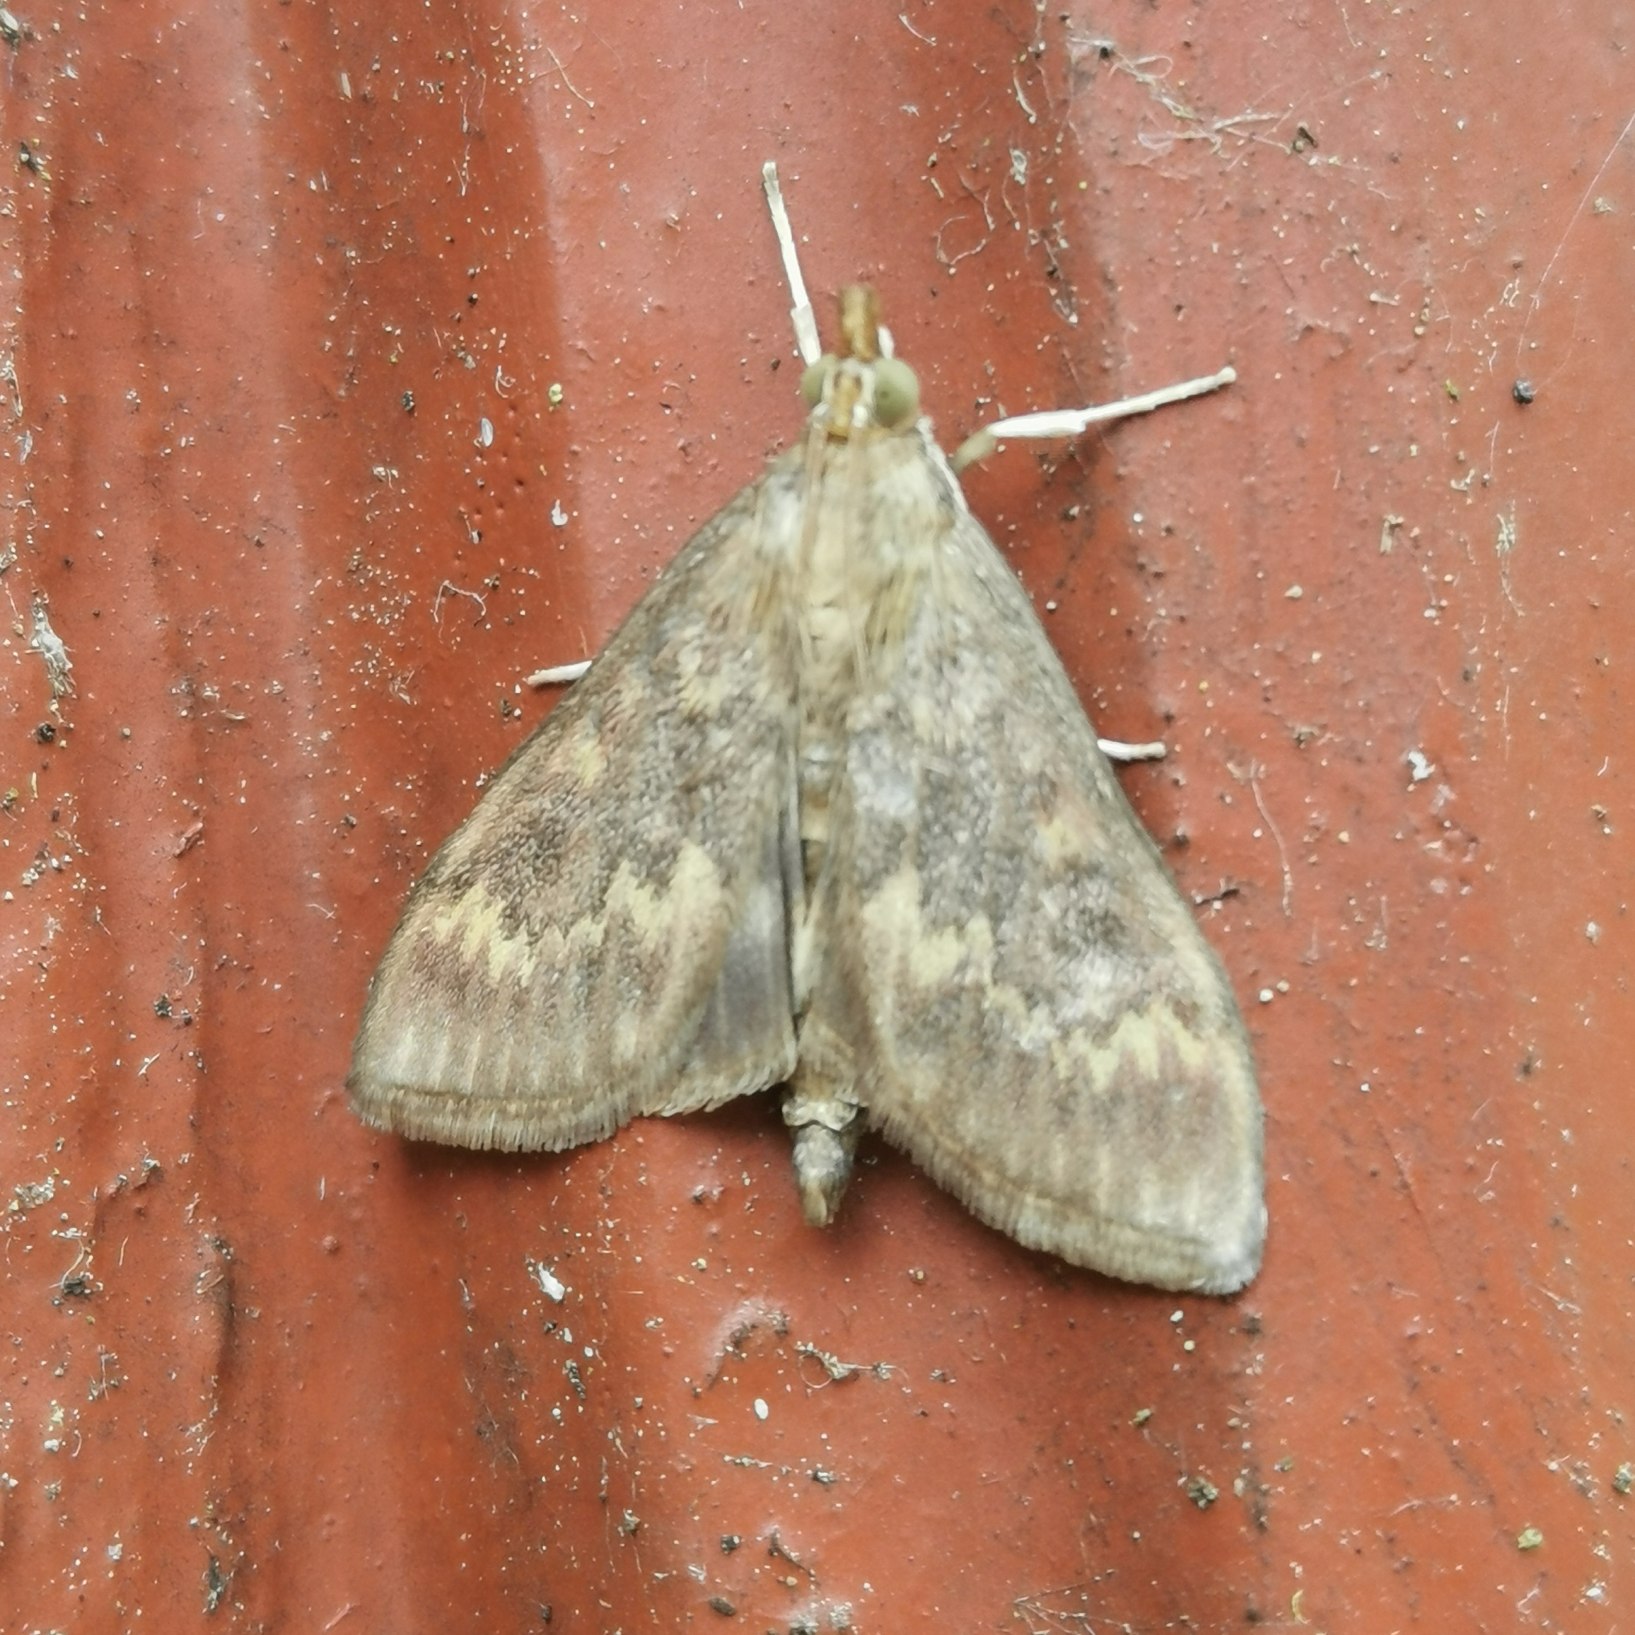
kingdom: Animalia
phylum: Arthropoda
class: Insecta
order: Lepidoptera
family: Crambidae
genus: Ostrinia
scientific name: Ostrinia nubilalis
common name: Majshalvmøl
